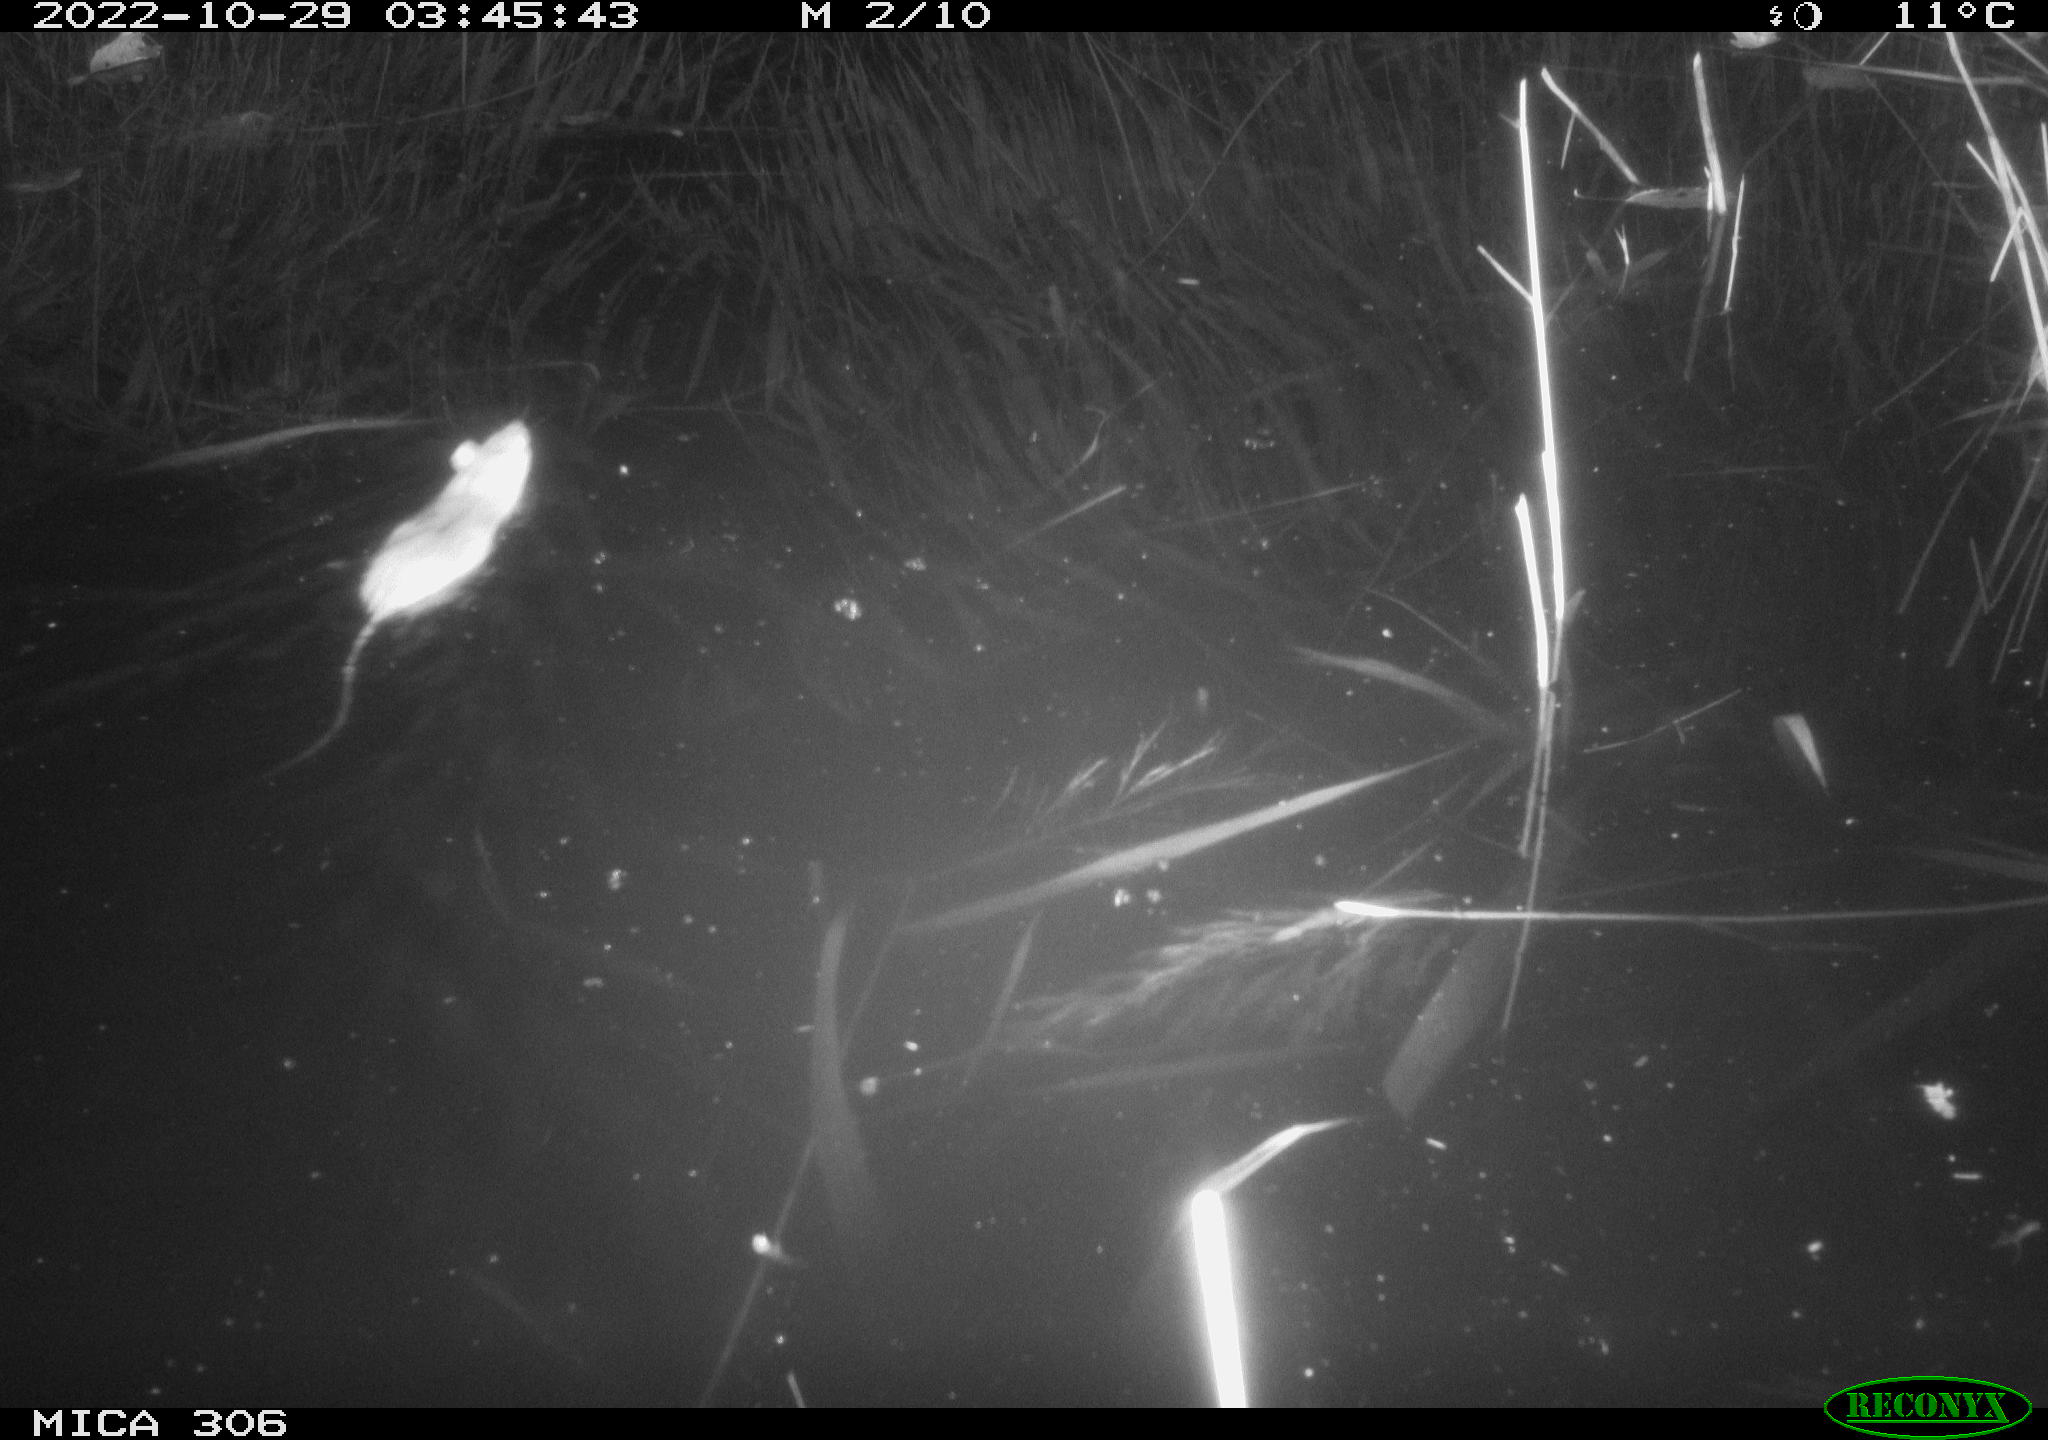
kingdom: Animalia
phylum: Chordata
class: Mammalia
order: Rodentia
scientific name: Rodentia
